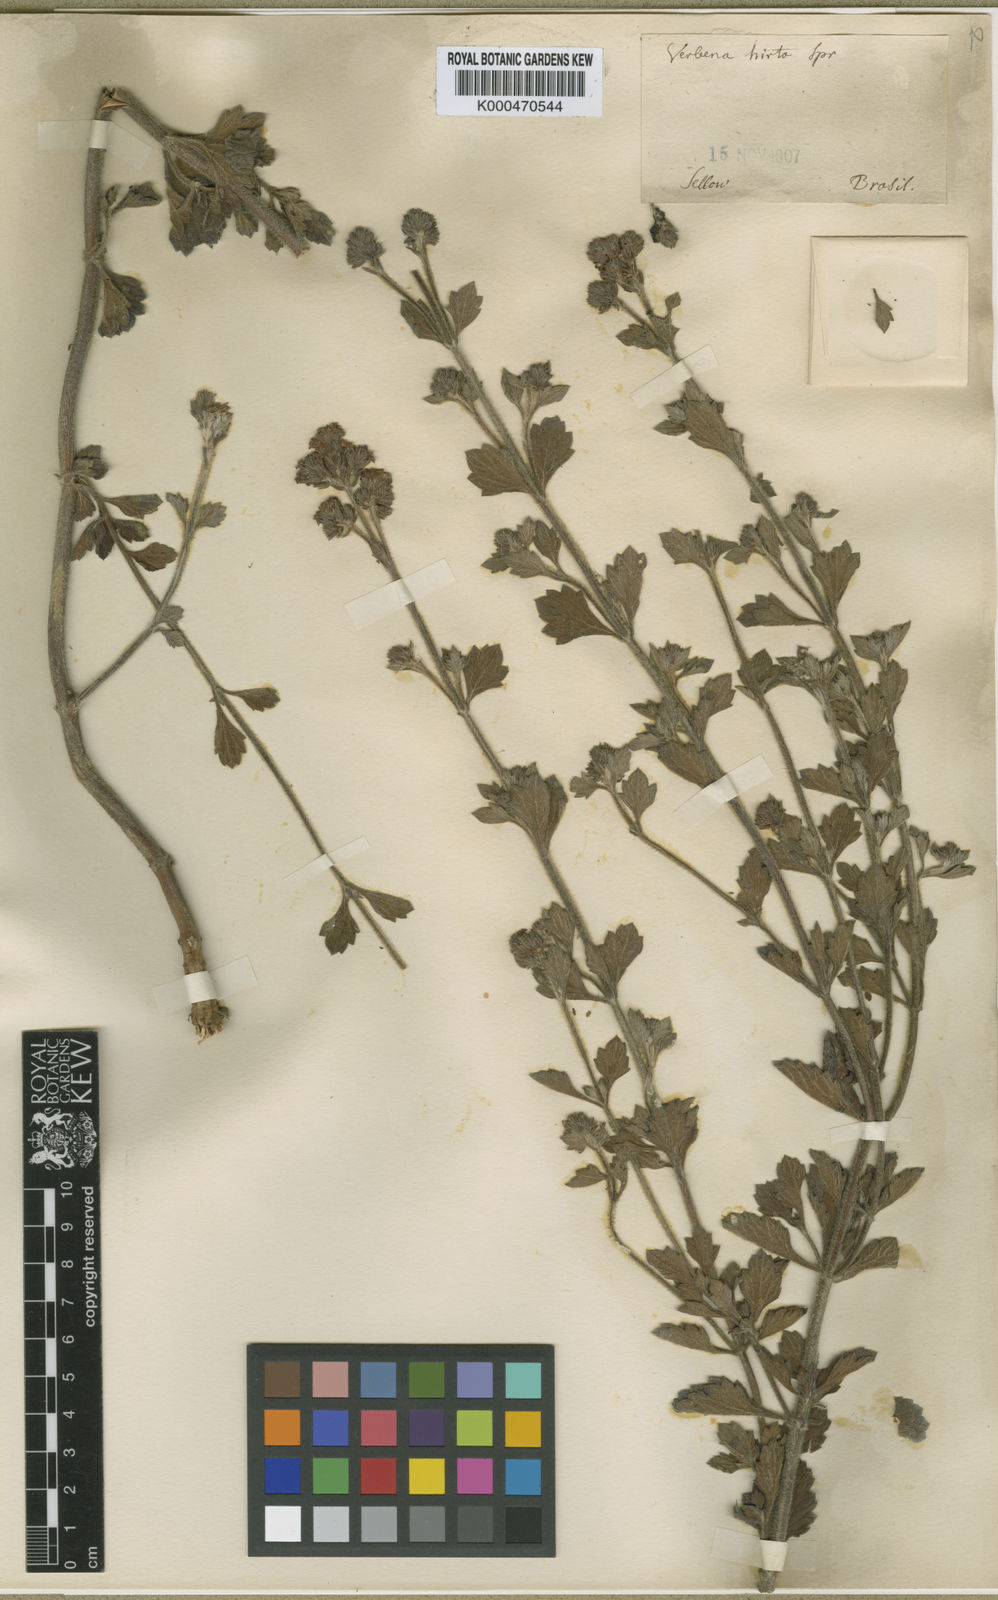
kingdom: Plantae
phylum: Tracheophyta
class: Magnoliopsida
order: Lamiales
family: Verbenaceae
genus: Verbena
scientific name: Verbena hirta
